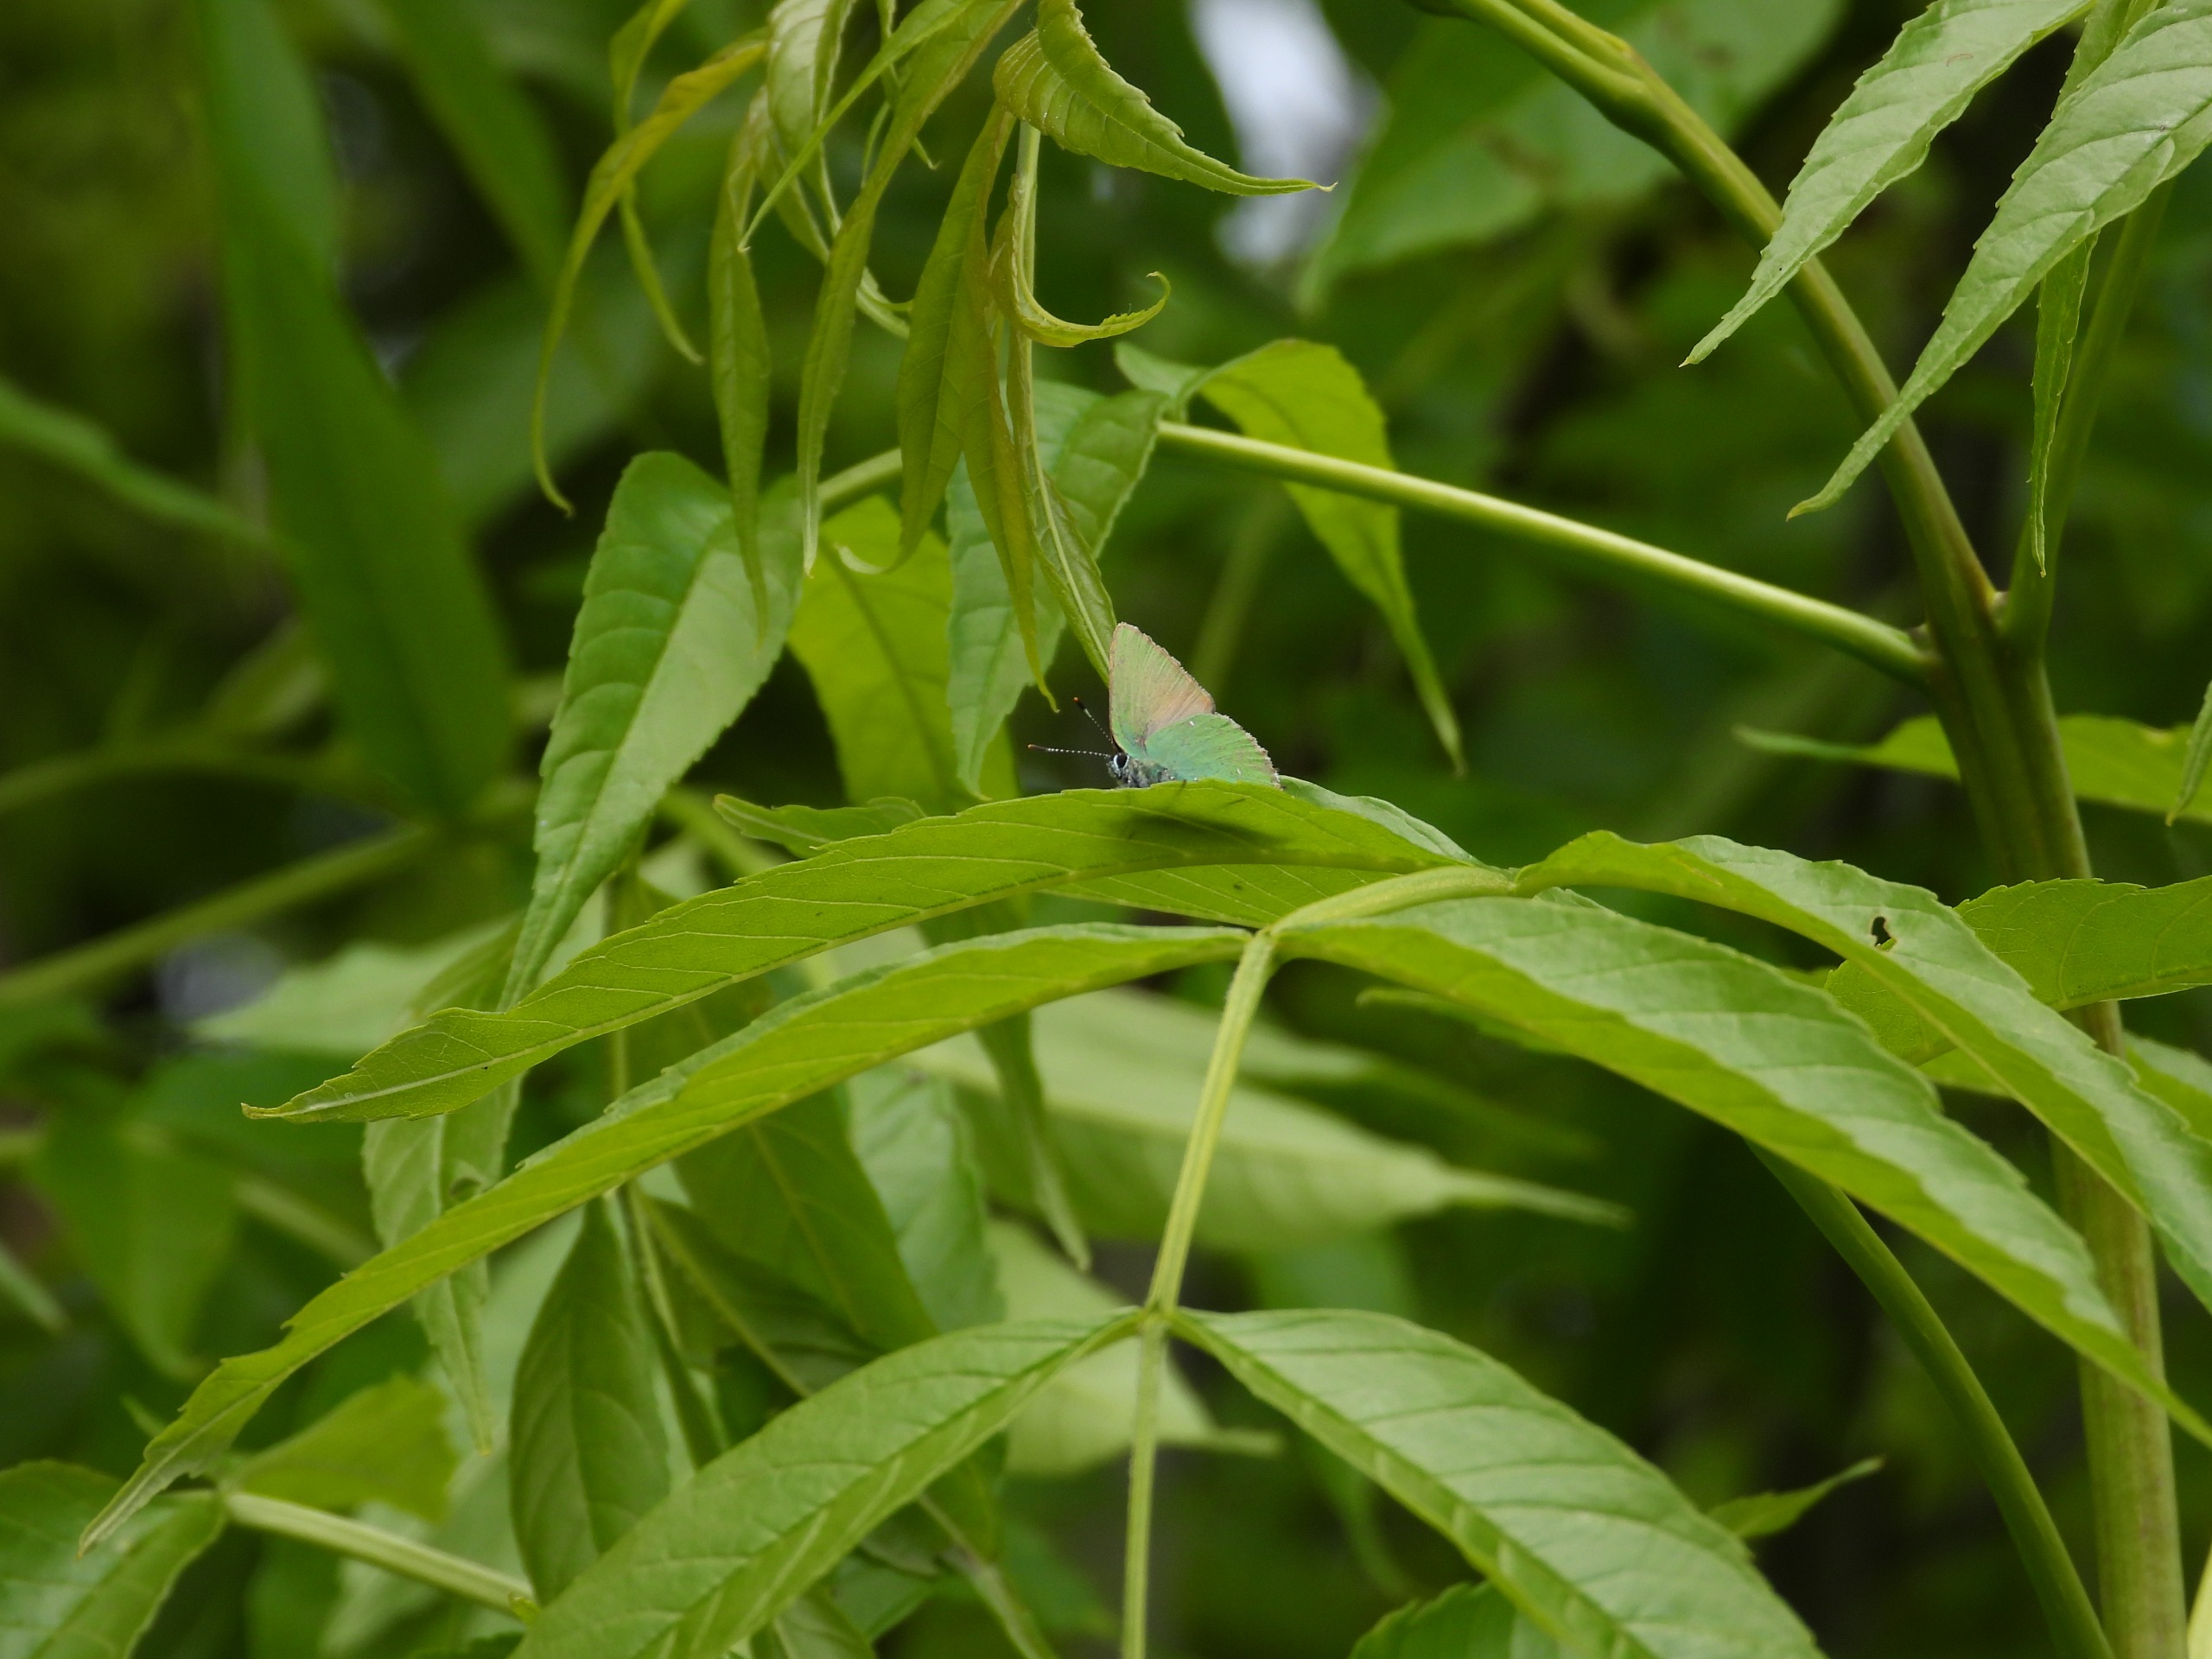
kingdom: Animalia
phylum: Arthropoda
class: Insecta
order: Lepidoptera
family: Lycaenidae
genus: Callophrys
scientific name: Callophrys rubi
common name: Grøn busksommerfugl
